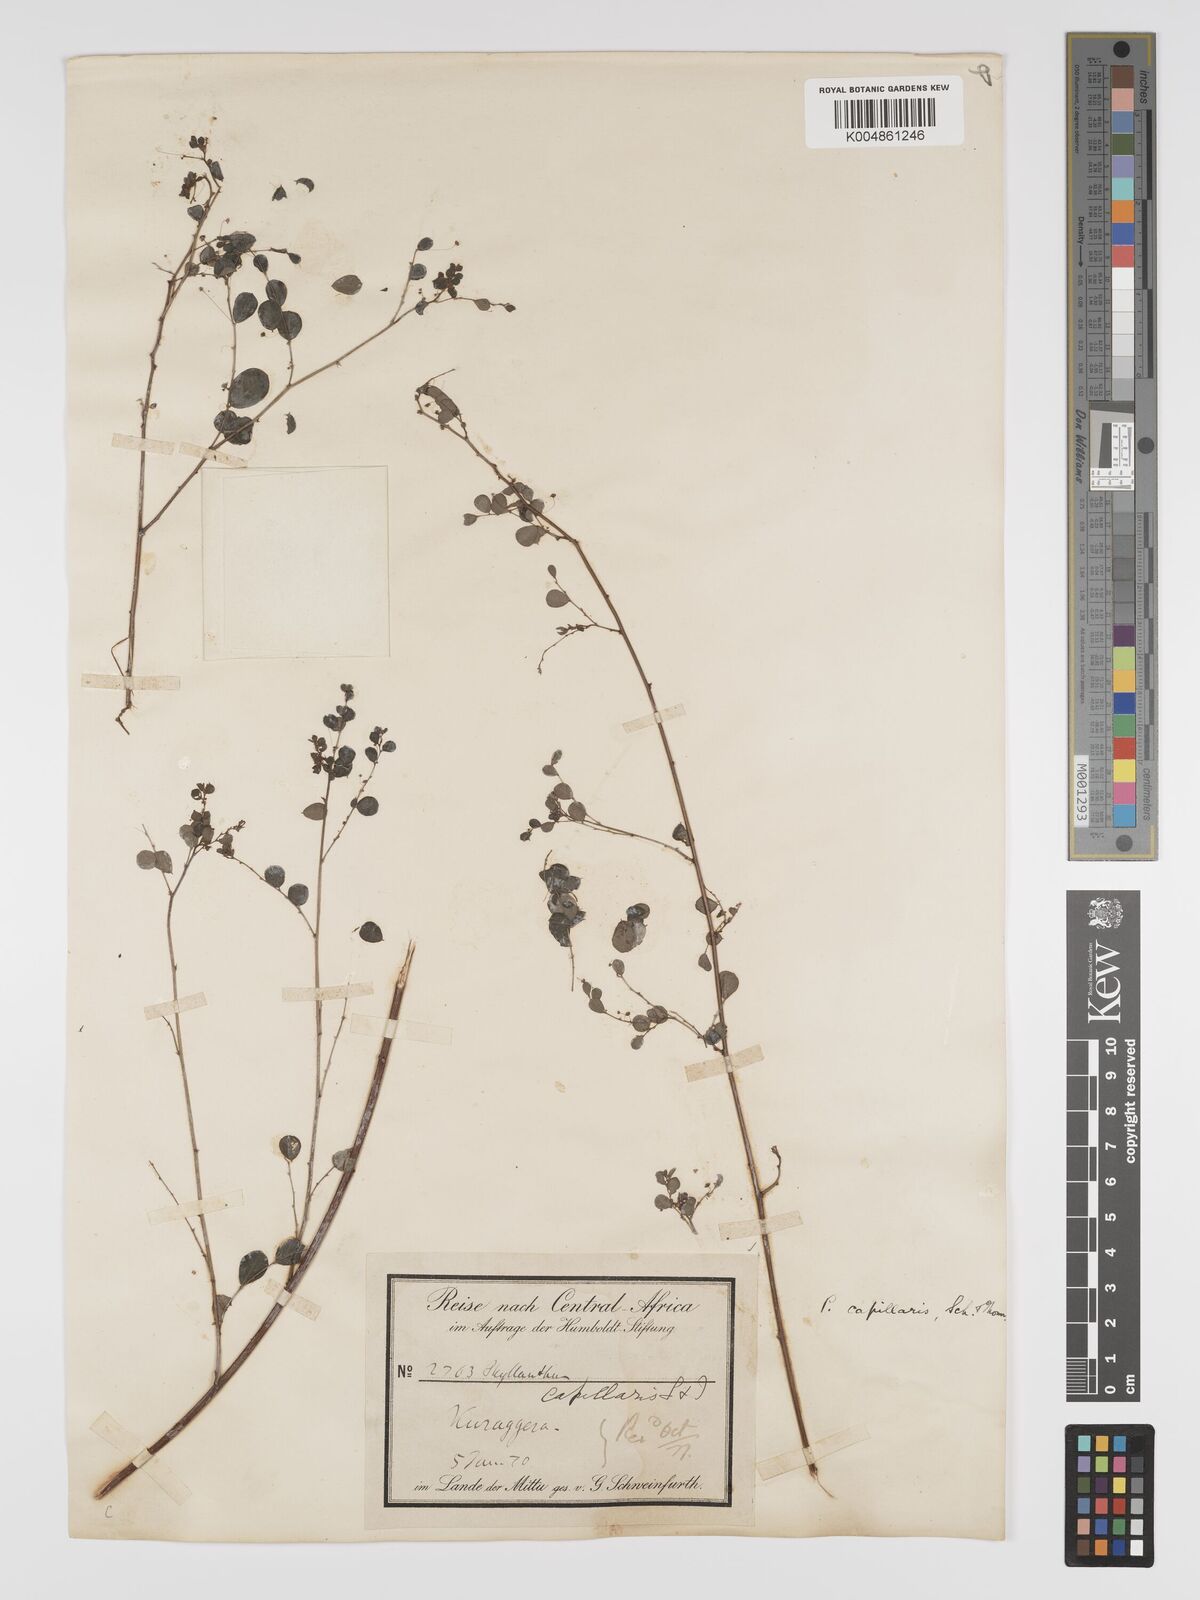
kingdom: Plantae
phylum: Tracheophyta
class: Magnoliopsida
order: Malpighiales
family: Phyllanthaceae
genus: Phyllanthus
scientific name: Phyllanthus nummulariifolius
